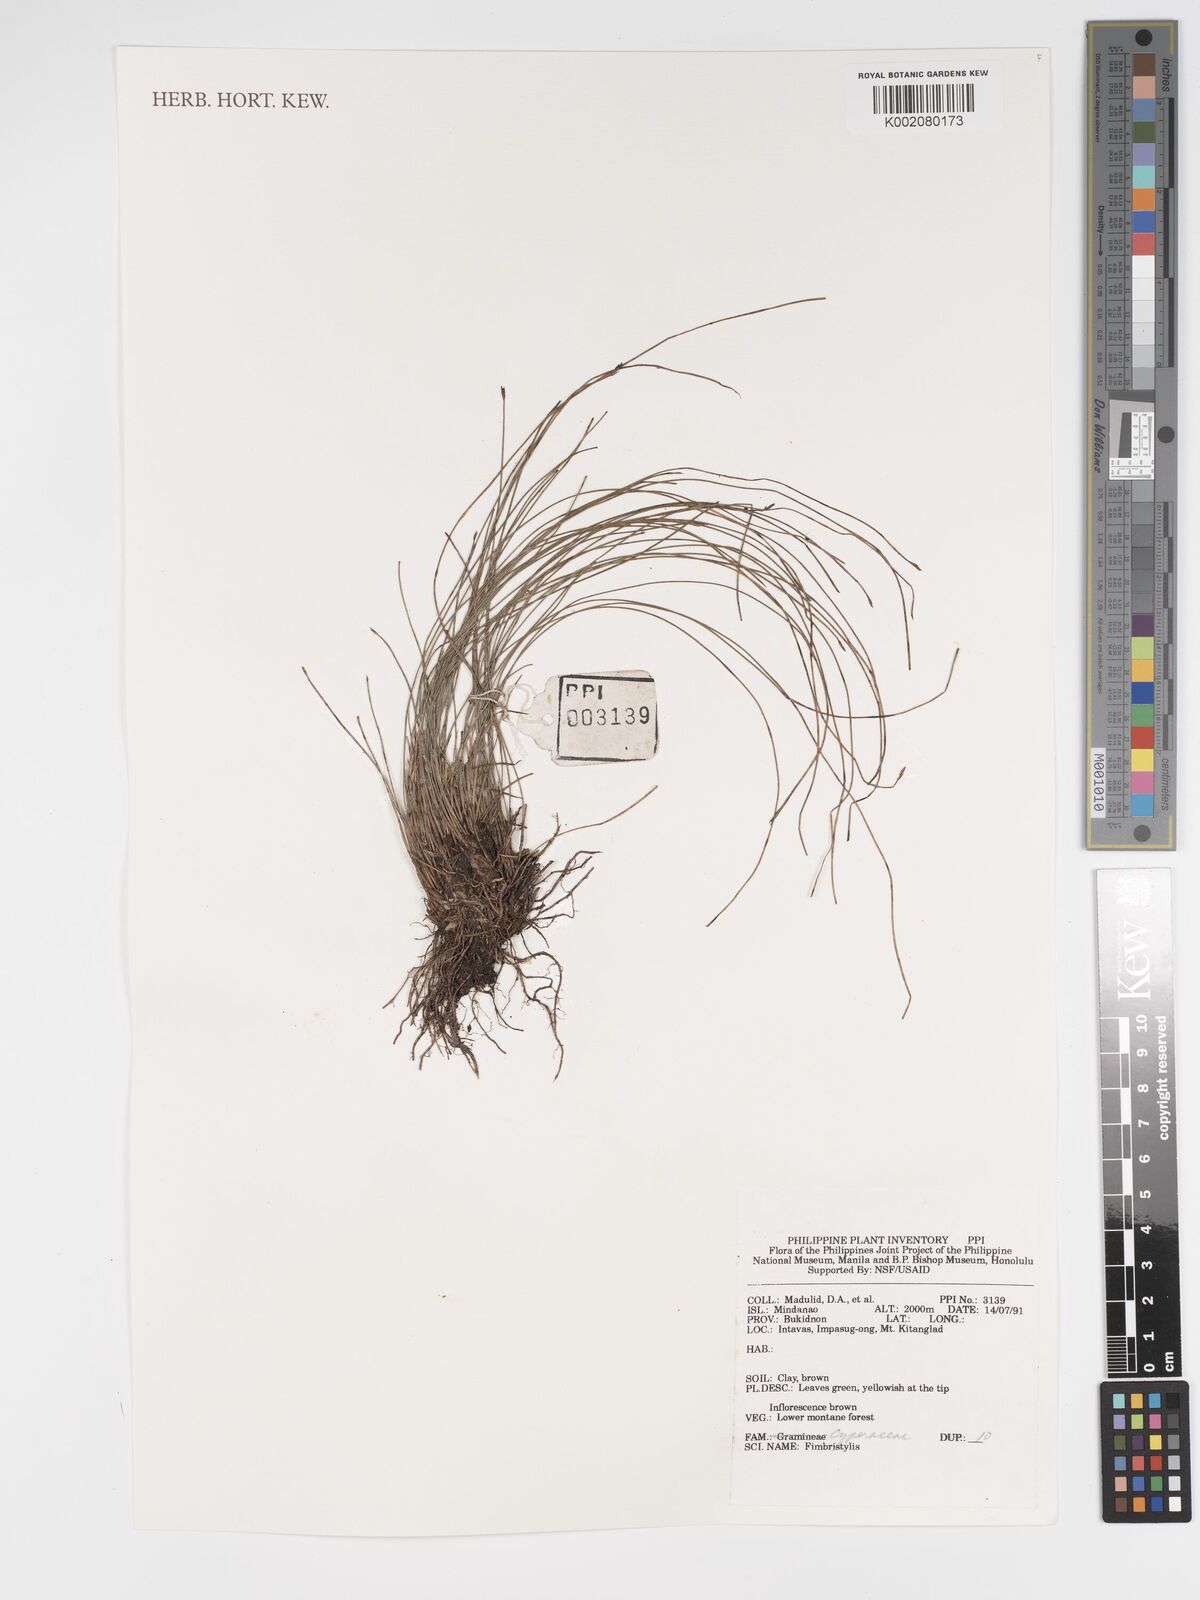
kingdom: Plantae
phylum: Tracheophyta
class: Liliopsida
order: Poales
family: Cyperaceae
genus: Fimbristylis
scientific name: Fimbristylis
